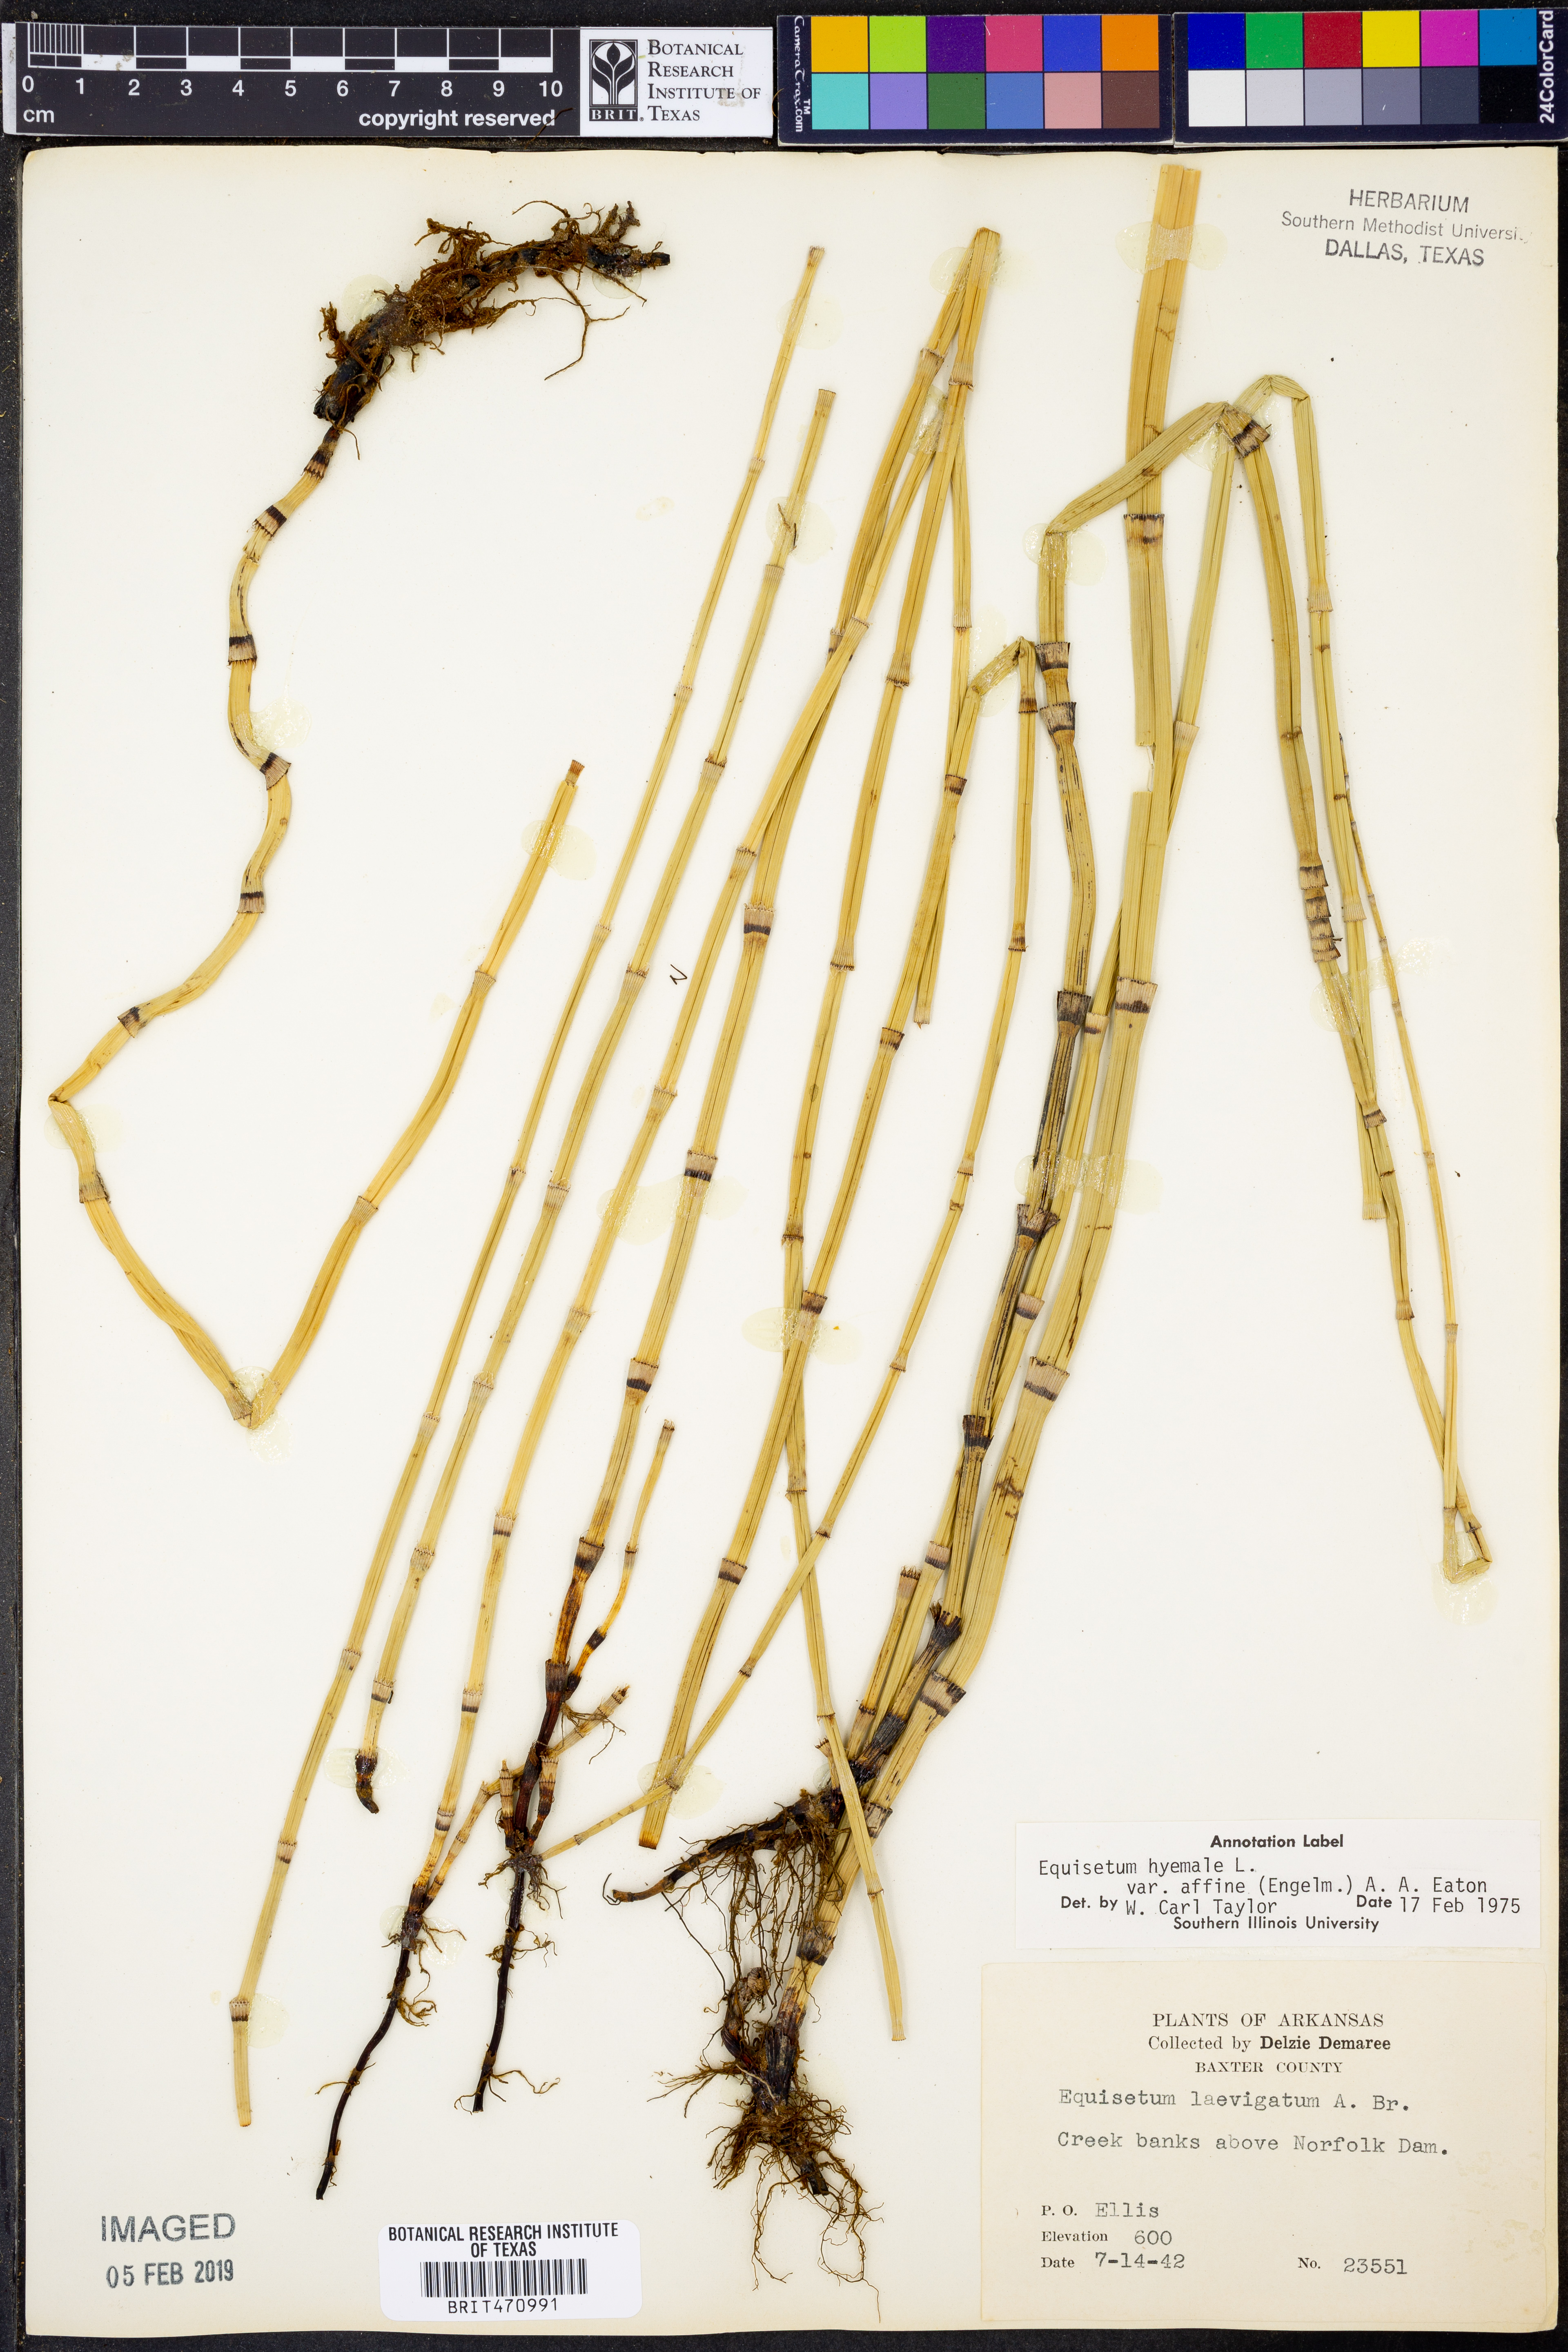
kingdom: Plantae
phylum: Tracheophyta
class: Polypodiopsida
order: Equisetales
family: Equisetaceae
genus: Equisetum
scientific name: Equisetum praealtum
